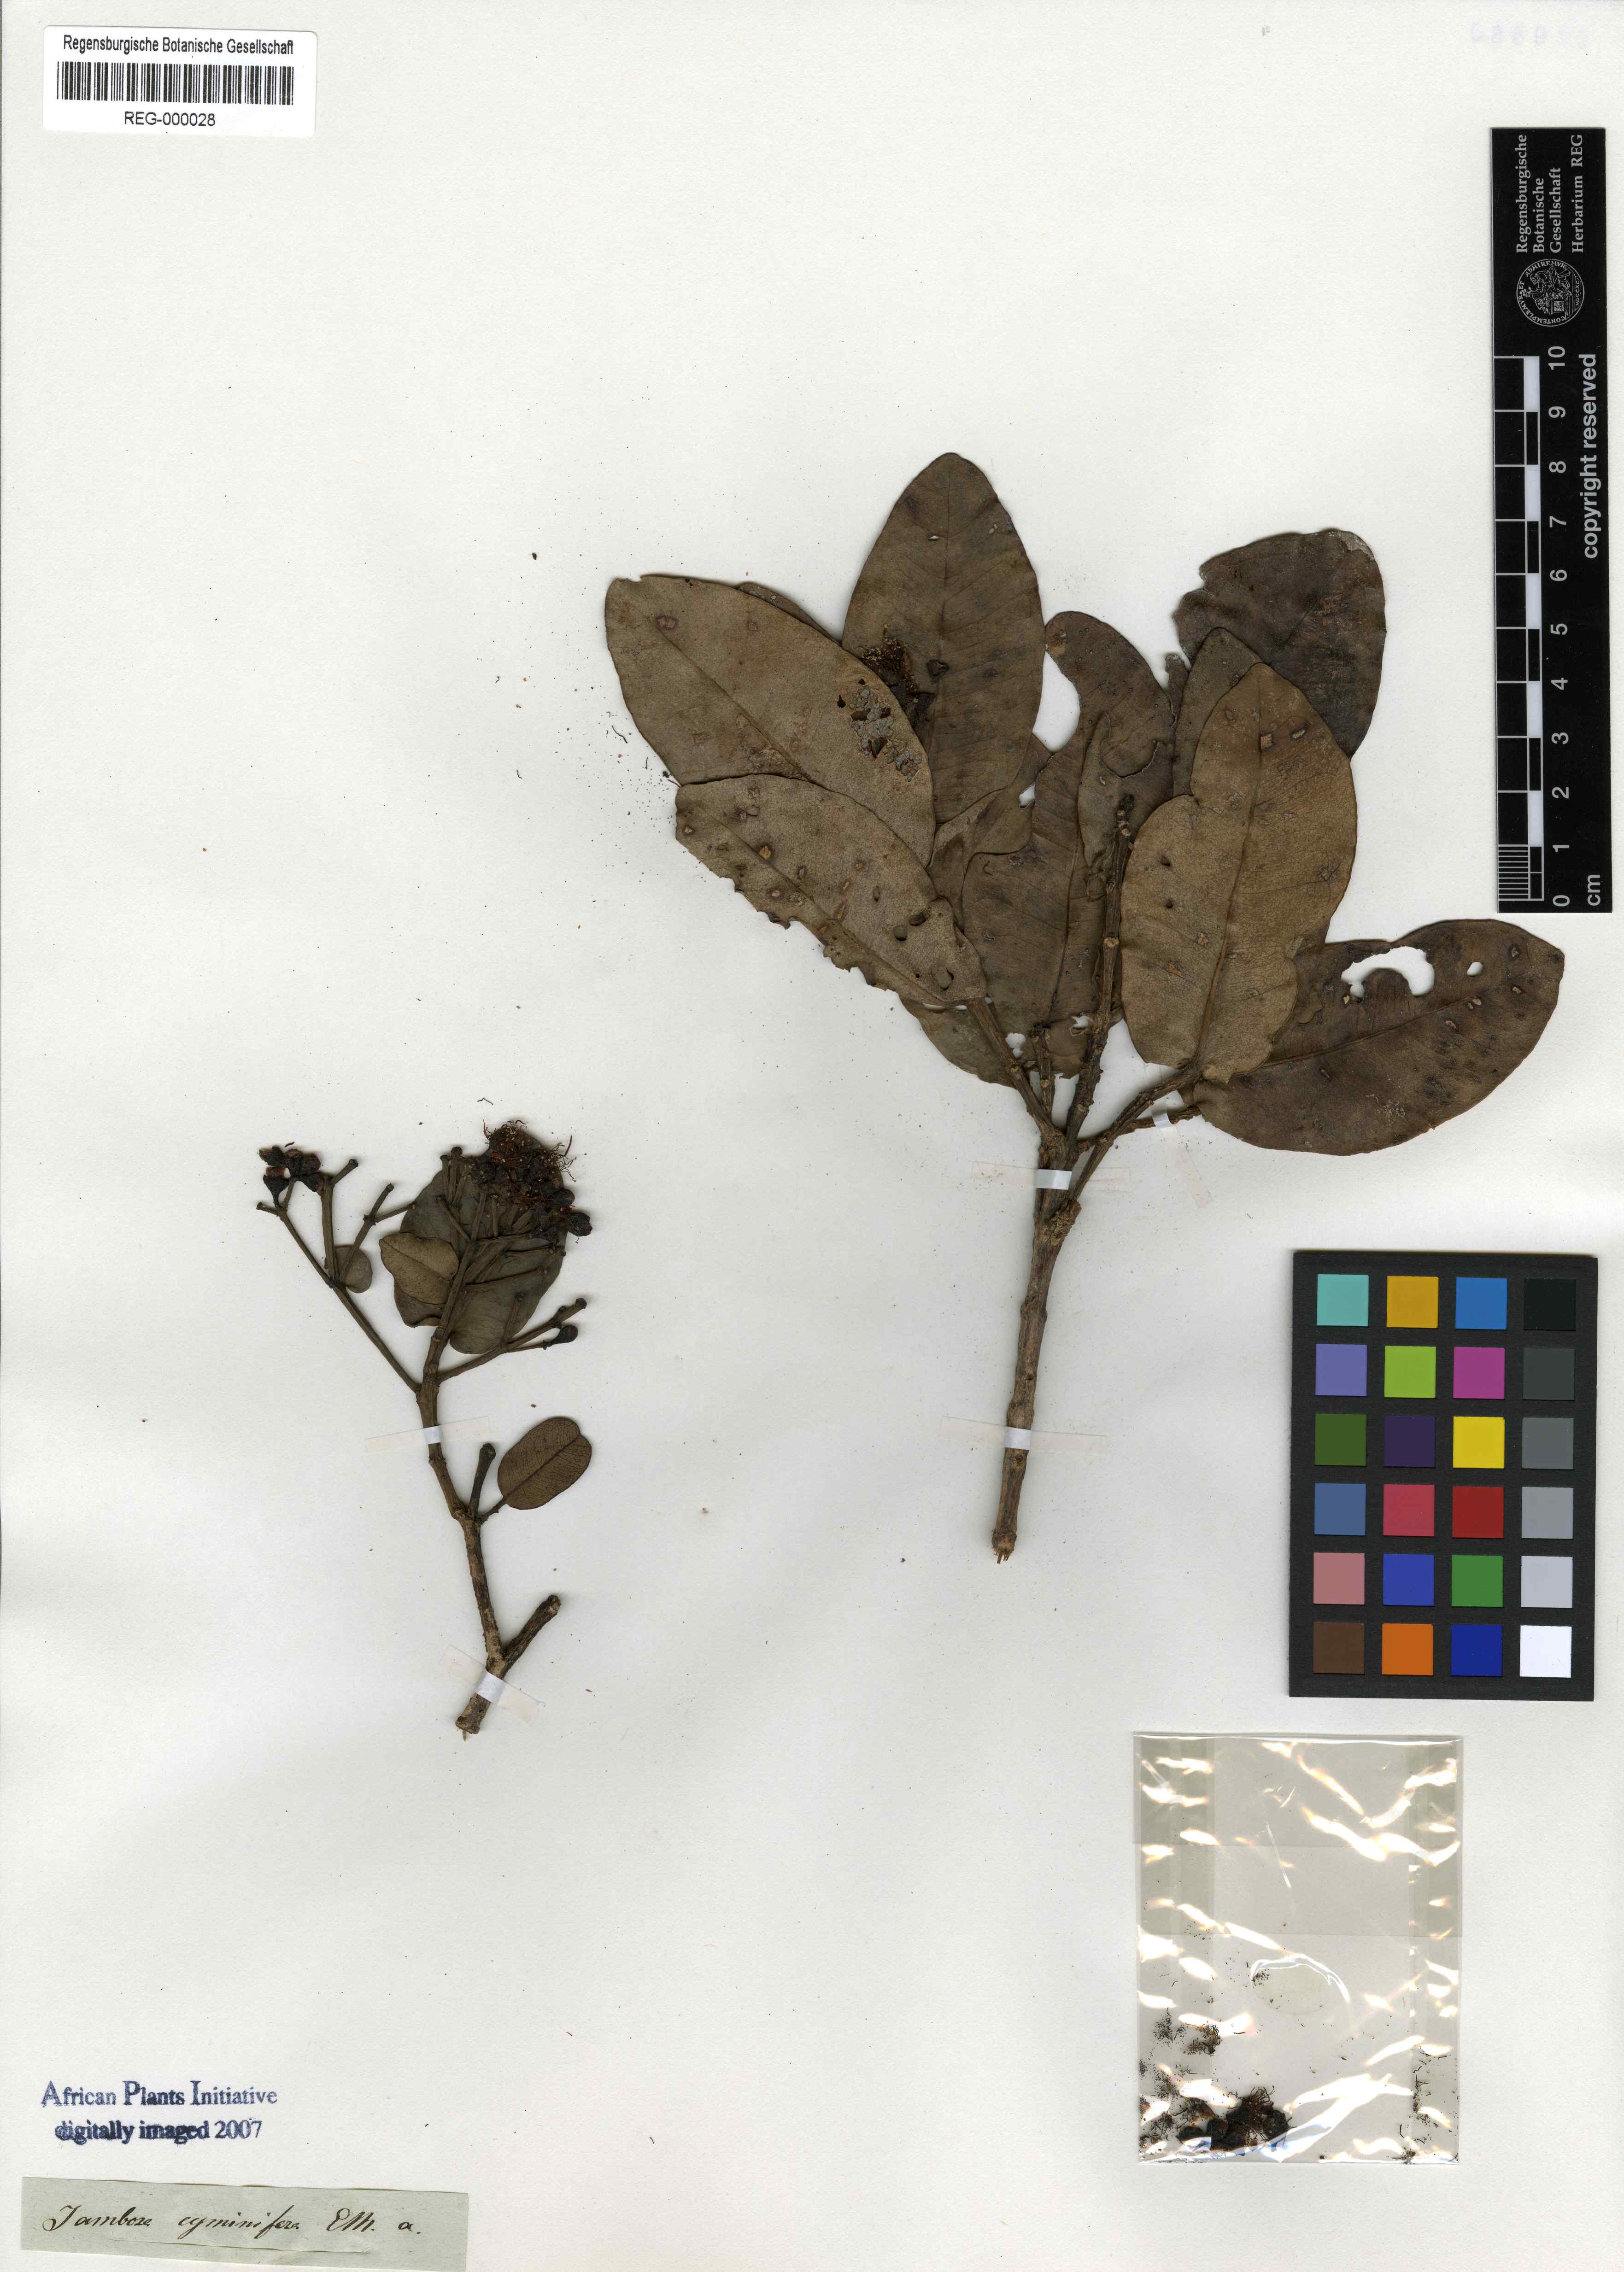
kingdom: Plantae
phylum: Tracheophyta
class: Magnoliopsida
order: Myrtales
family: Myrtaceae
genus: Syzygium
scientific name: Syzygium cordatum
